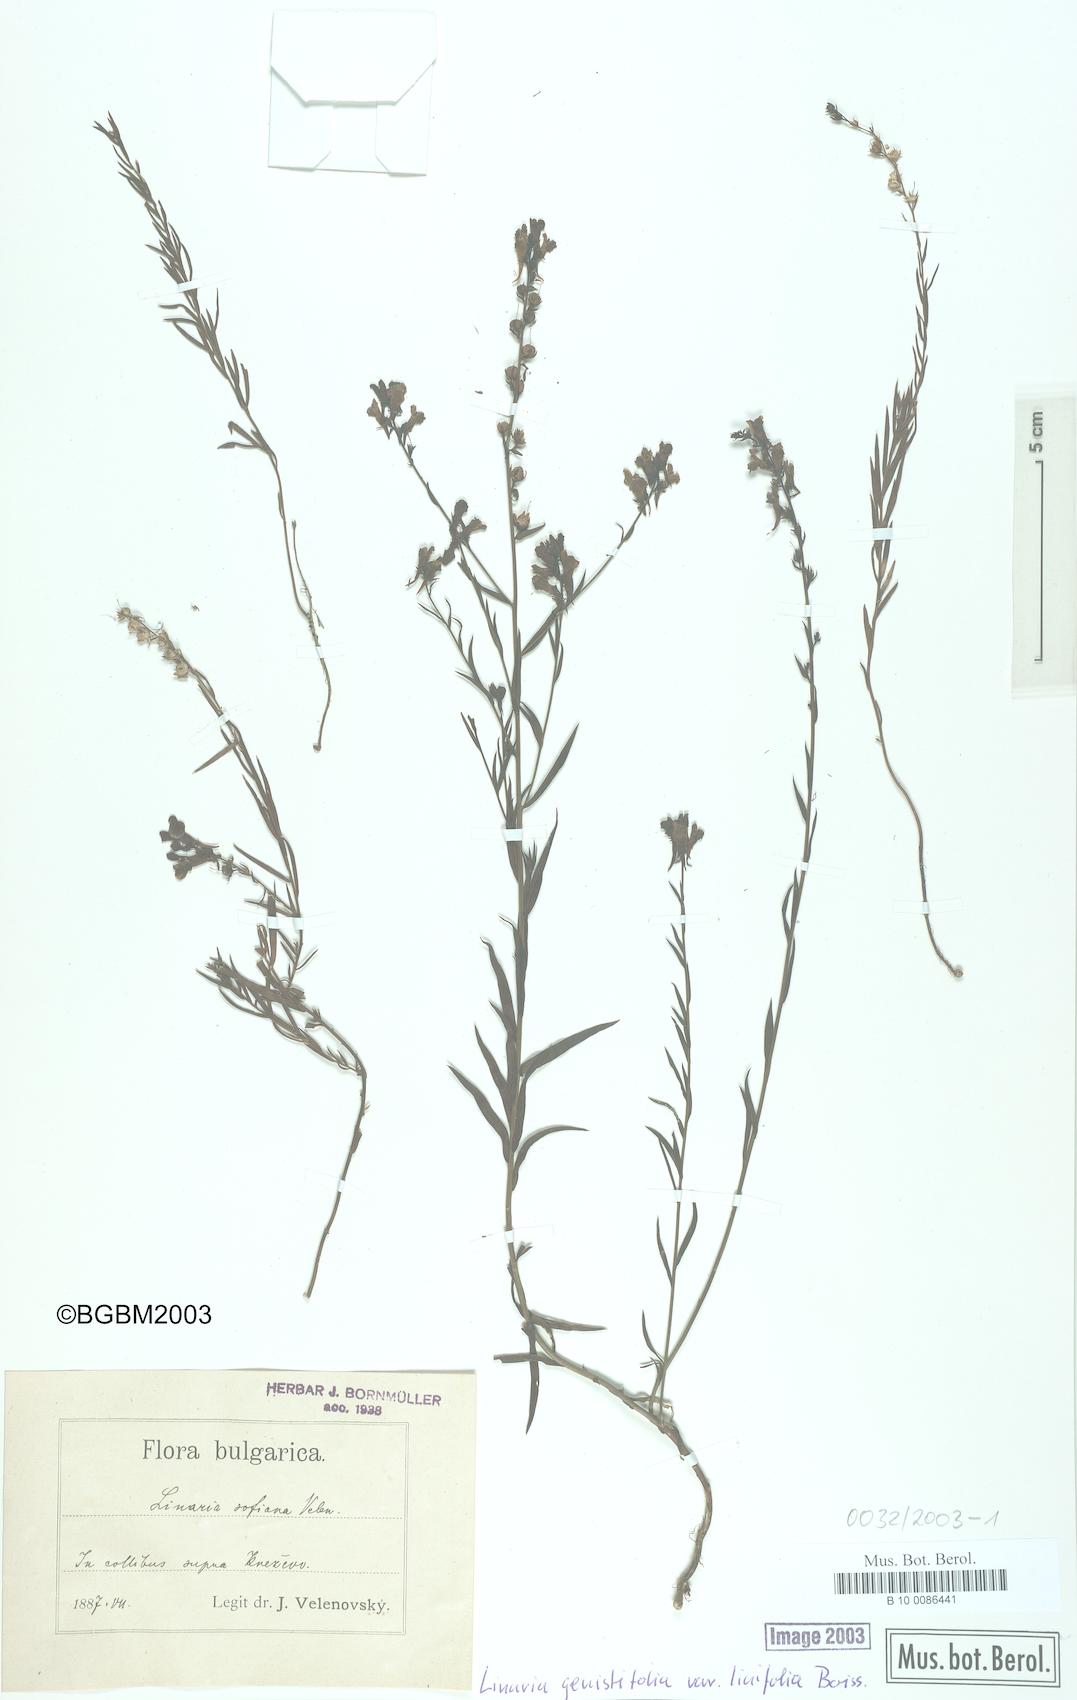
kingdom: Plantae
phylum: Tracheophyta
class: Magnoliopsida
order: Lamiales
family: Plantaginaceae
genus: Linaria
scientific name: Linaria genistifolia
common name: Broomleaf toadflax
